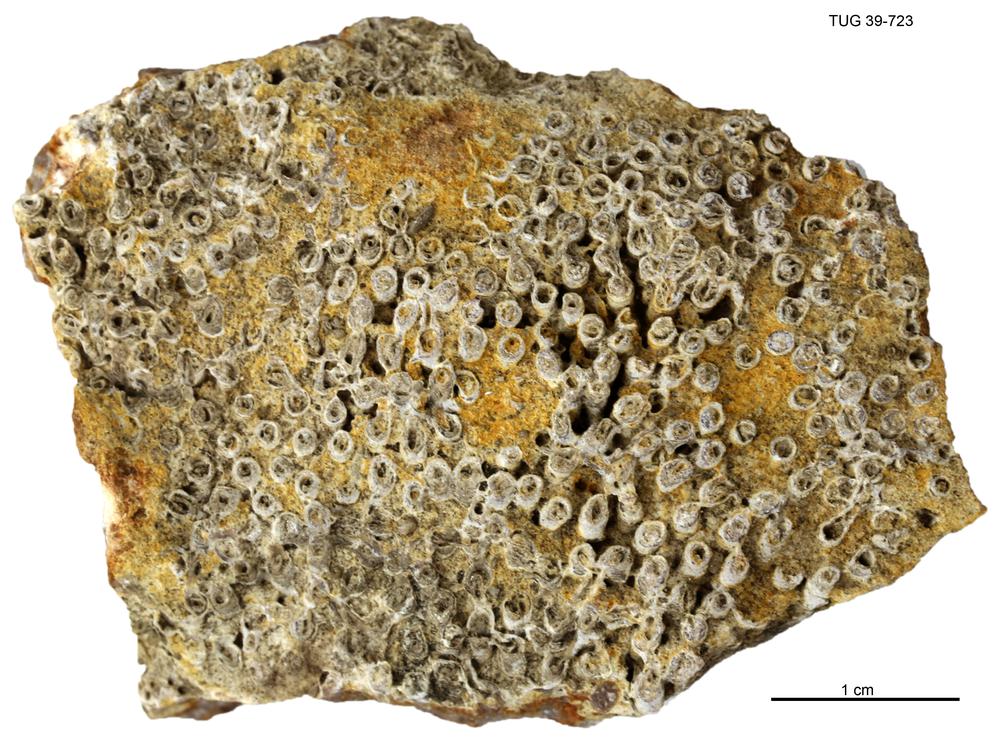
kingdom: Animalia
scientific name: Animalia
